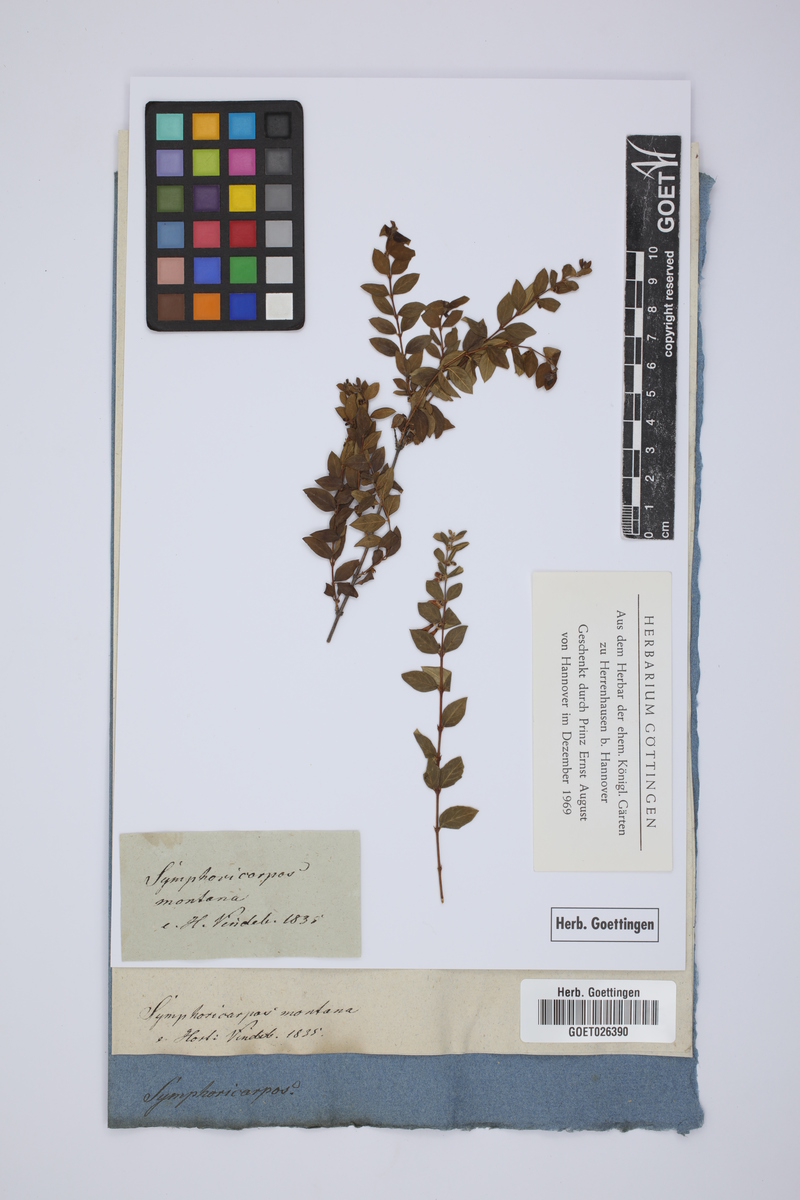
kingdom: Plantae
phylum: Tracheophyta
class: Magnoliopsida
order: Dipsacales
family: Caprifoliaceae
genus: Symphoricarpos
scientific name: Symphoricarpos microphyllus
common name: Small-leaved snowberry
